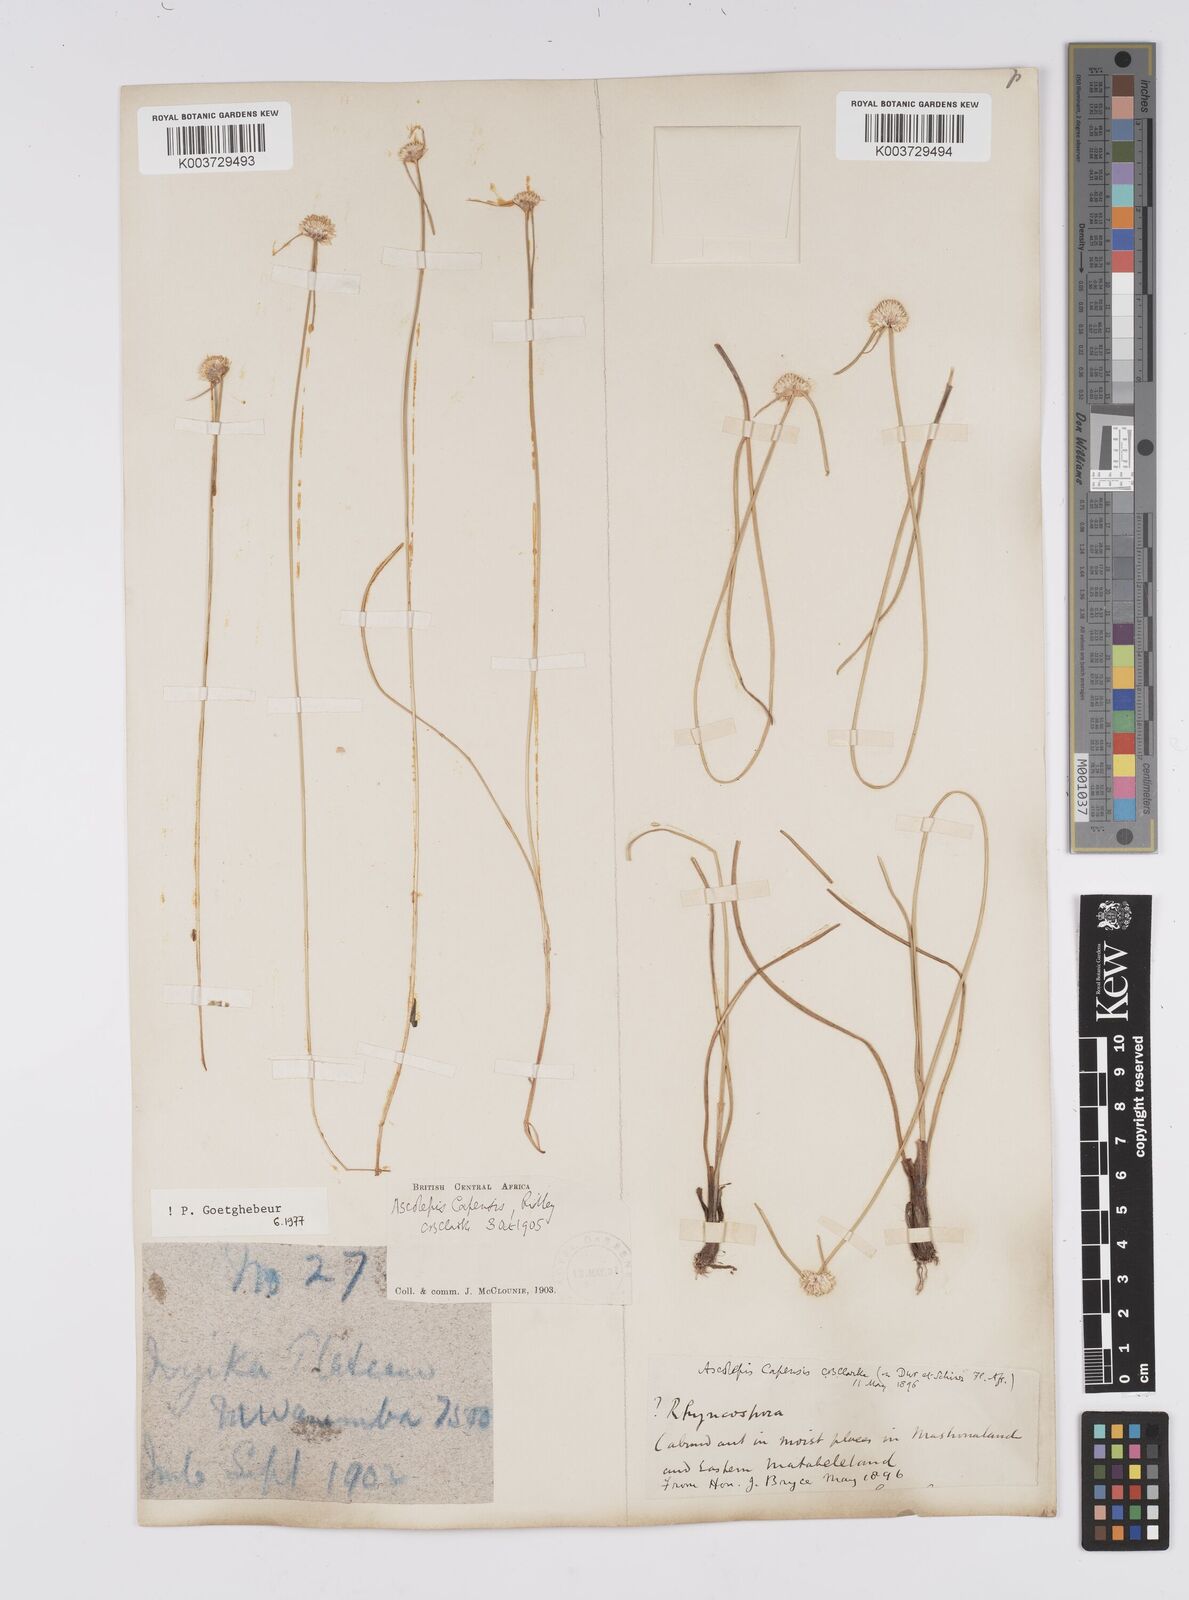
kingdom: Plantae
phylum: Tracheophyta
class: Liliopsida
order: Poales
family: Cyperaceae
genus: Cyperus
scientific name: Cyperus
